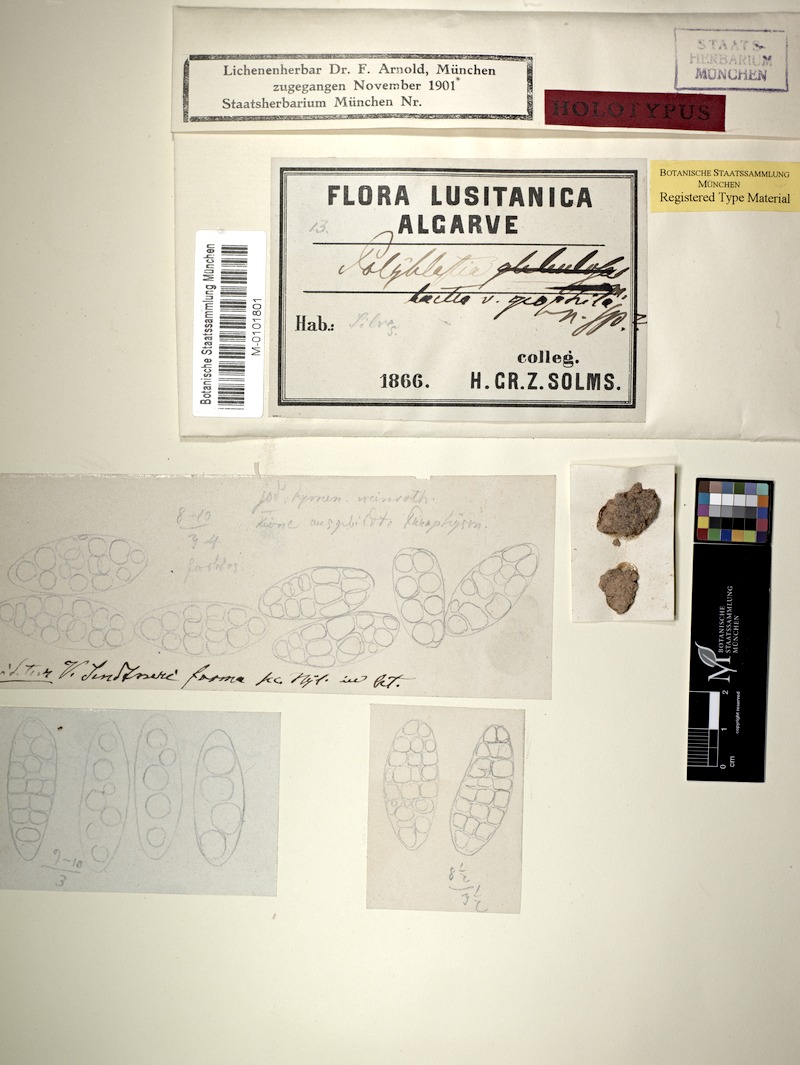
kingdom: Fungi
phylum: Ascomycota
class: Lecanoromycetes
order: Ostropales
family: Thelenellaceae
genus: Julella
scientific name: Julella lactea
